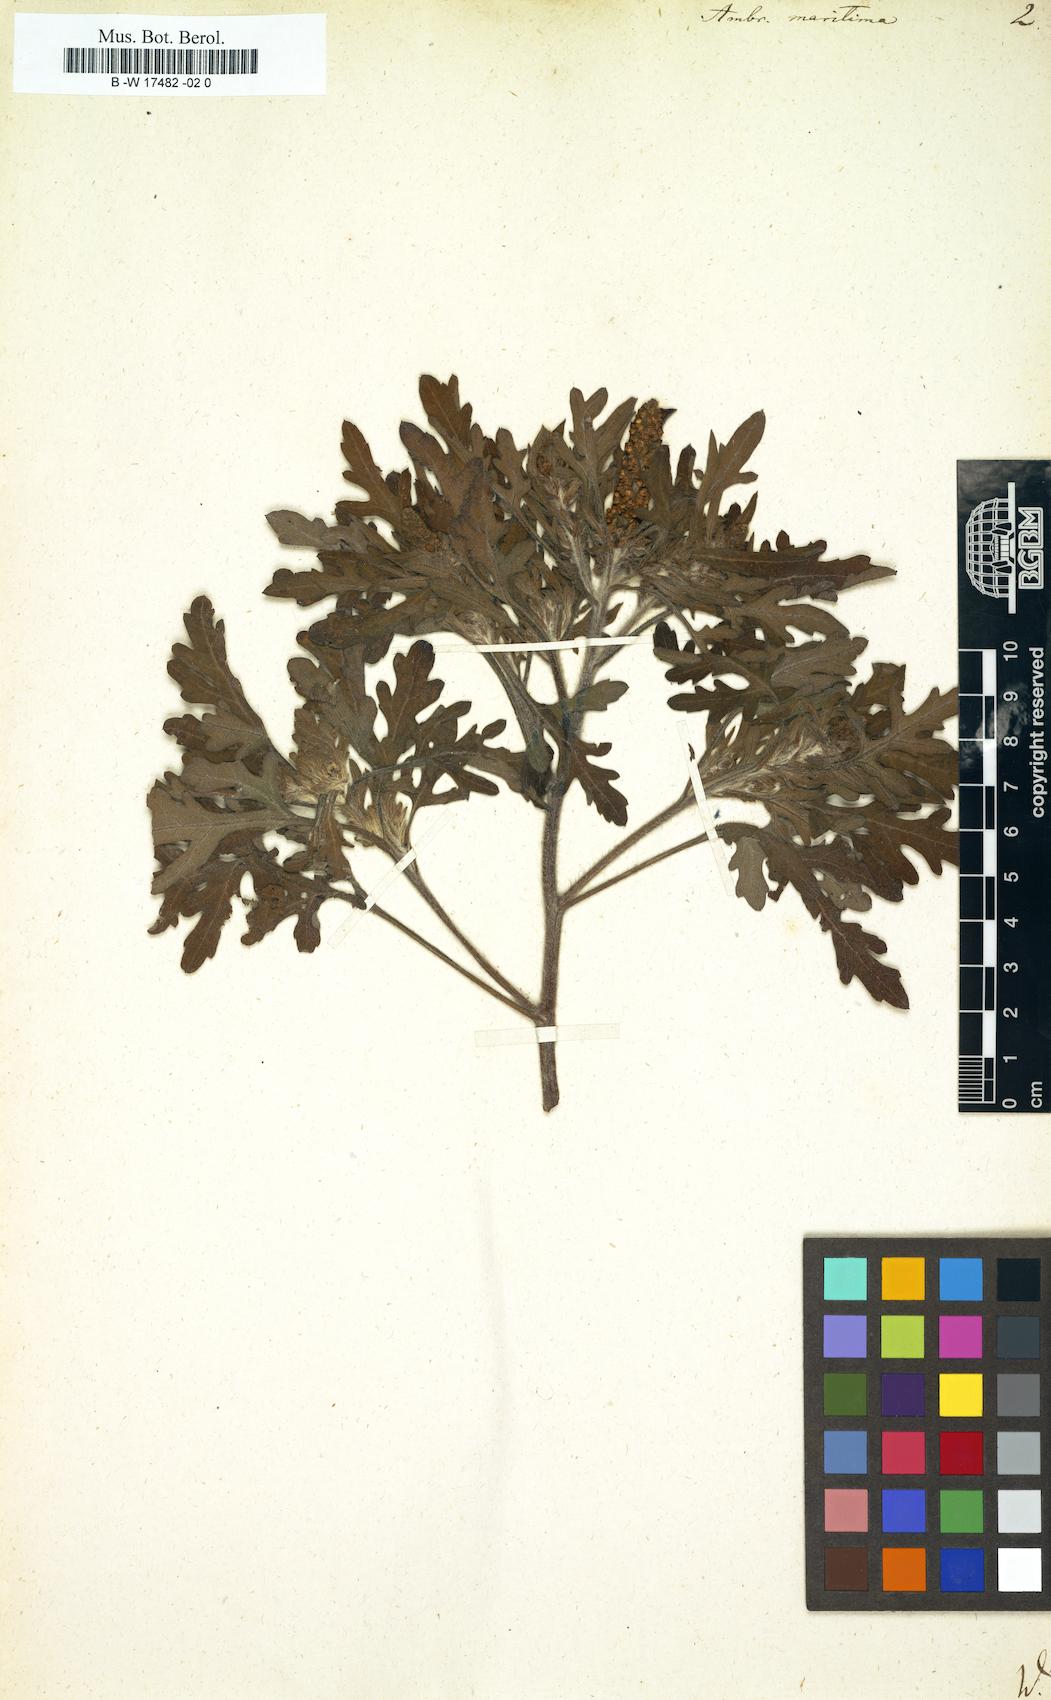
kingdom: Plantae
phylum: Tracheophyta
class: Magnoliopsida
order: Asterales
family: Asteraceae
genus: Ambrosia
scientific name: Ambrosia maritima
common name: Sea ambrosia
